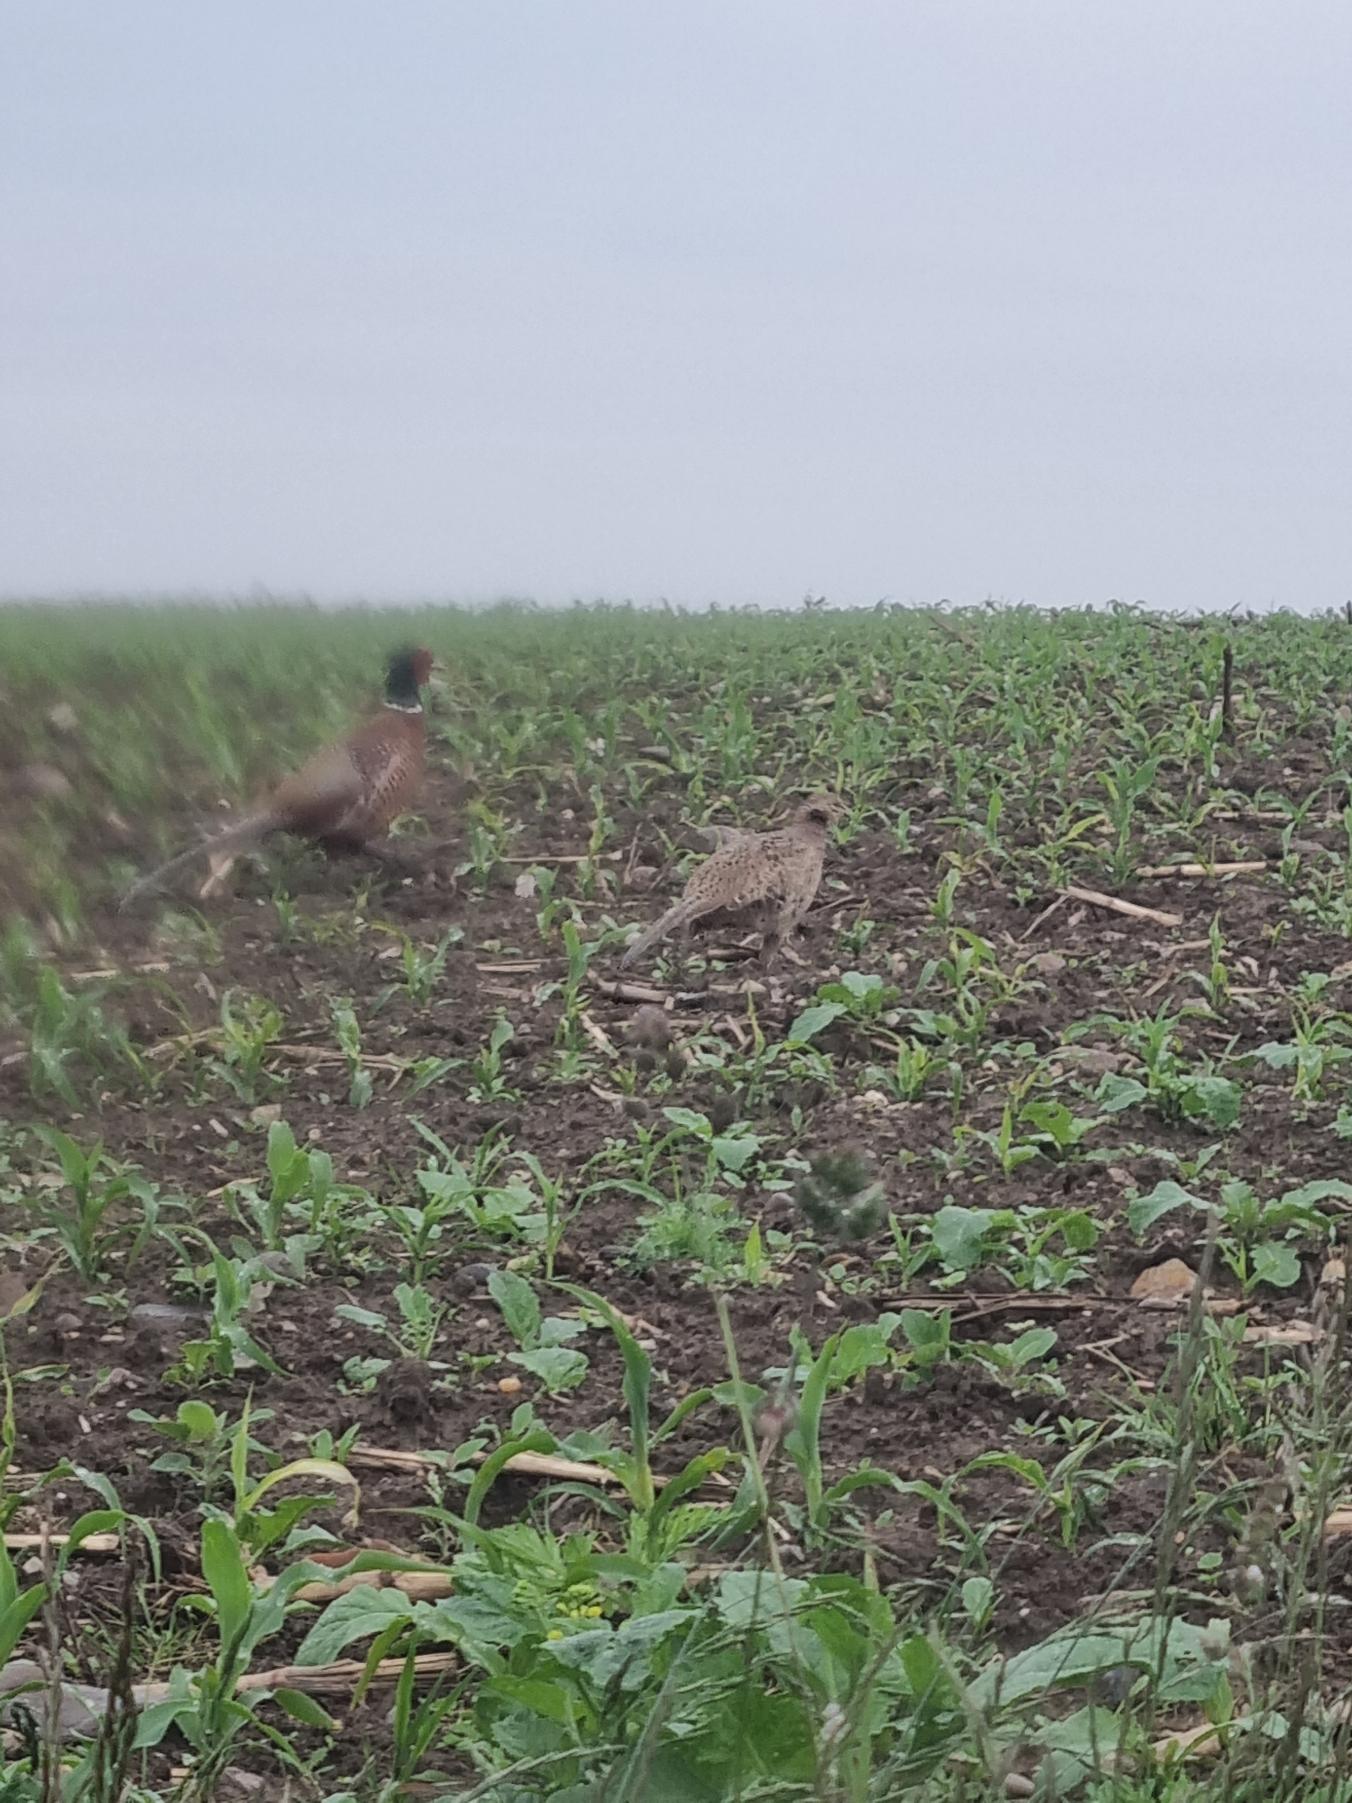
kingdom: Animalia
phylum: Chordata
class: Aves
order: Galliformes
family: Phasianidae
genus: Phasianus
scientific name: Phasianus colchicus
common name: Fasan
